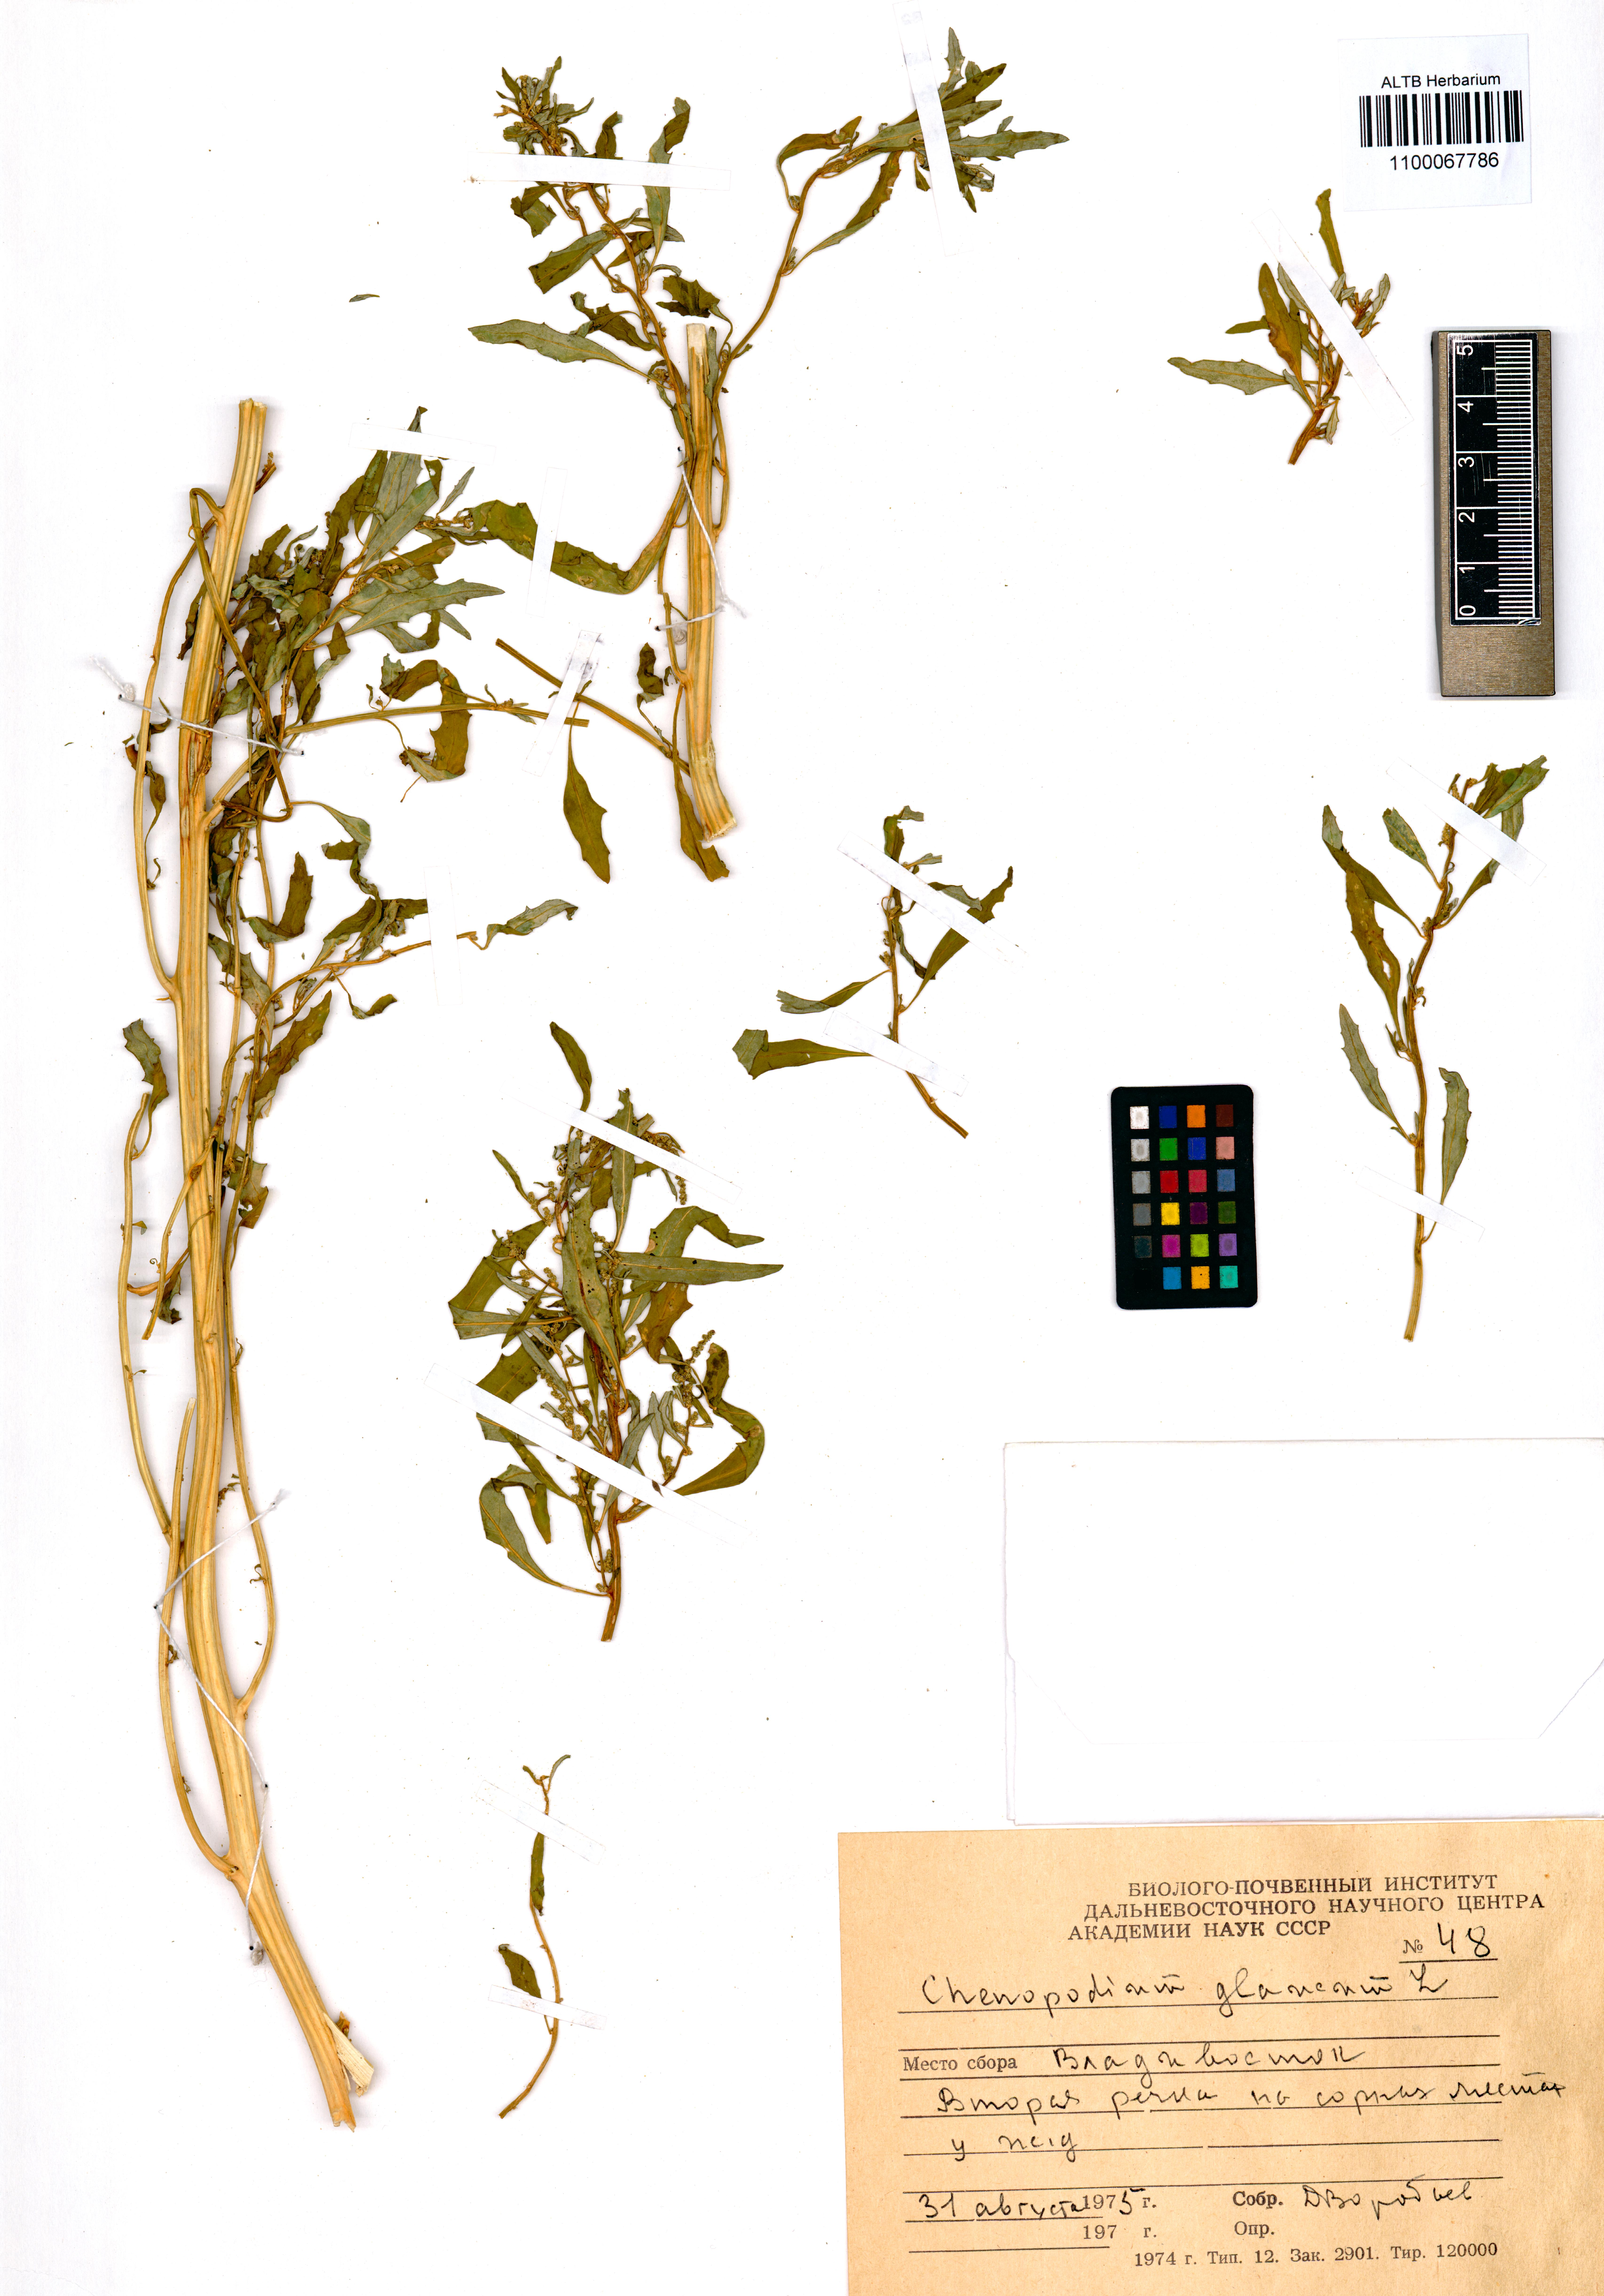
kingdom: Plantae
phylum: Tracheophyta
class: Magnoliopsida
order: Caryophyllales
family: Amaranthaceae
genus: Oxybasis
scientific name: Oxybasis glauca
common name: Glaucous goosefoot
